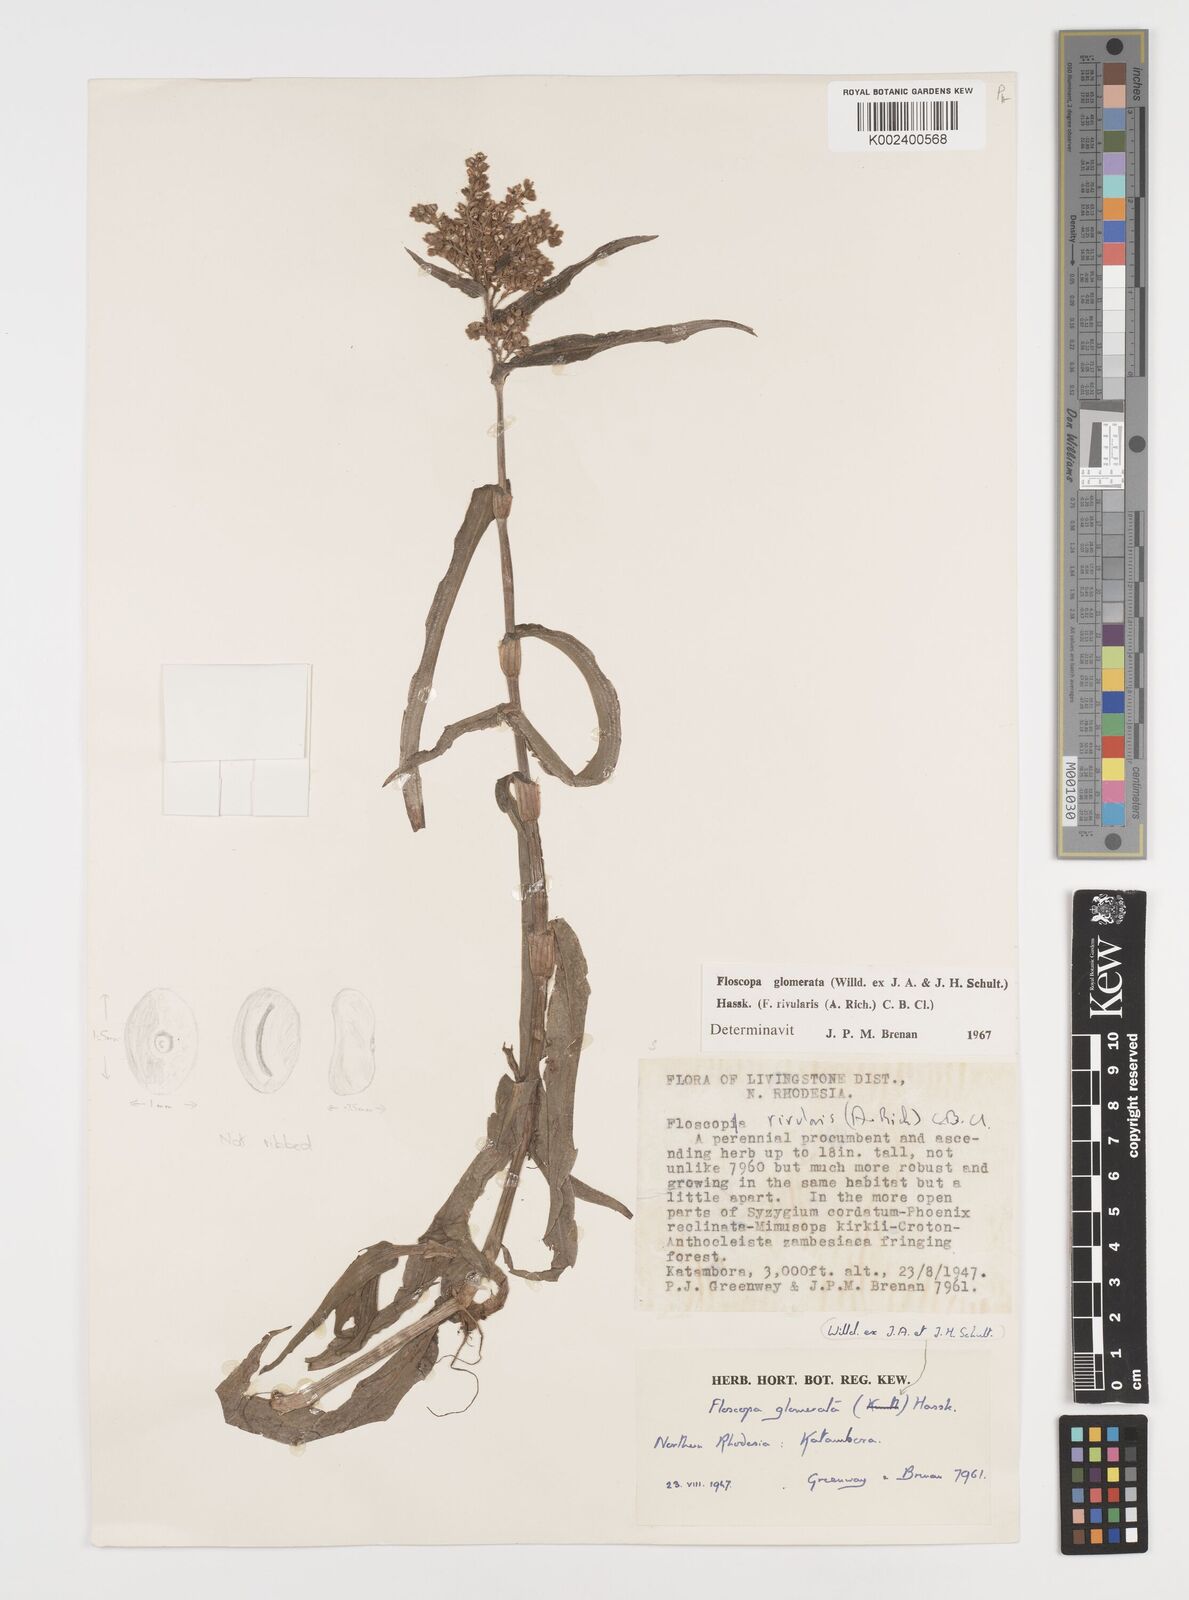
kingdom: Plantae
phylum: Tracheophyta
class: Liliopsida
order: Commelinales
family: Commelinaceae
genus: Floscopa
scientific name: Floscopa glomerata
